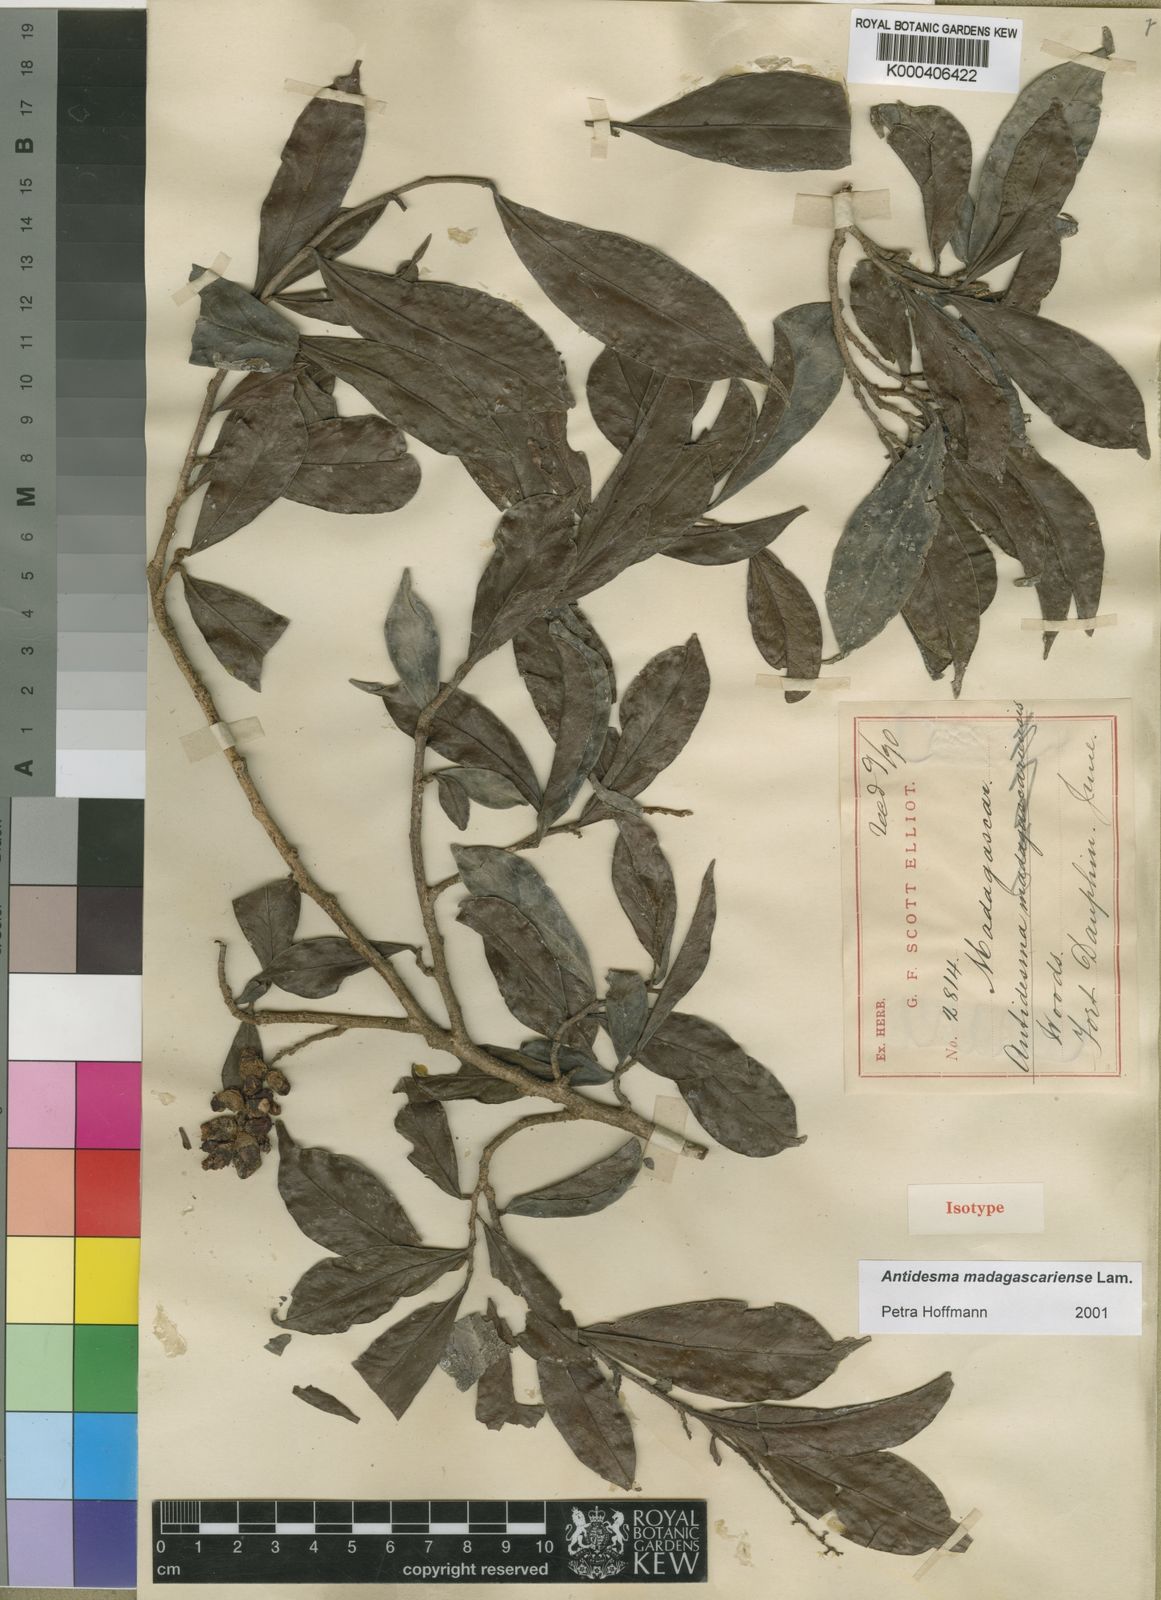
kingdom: Plantae
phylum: Tracheophyta
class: Magnoliopsida
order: Malpighiales
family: Phyllanthaceae
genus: Antidesma
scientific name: Antidesma madagascariense
